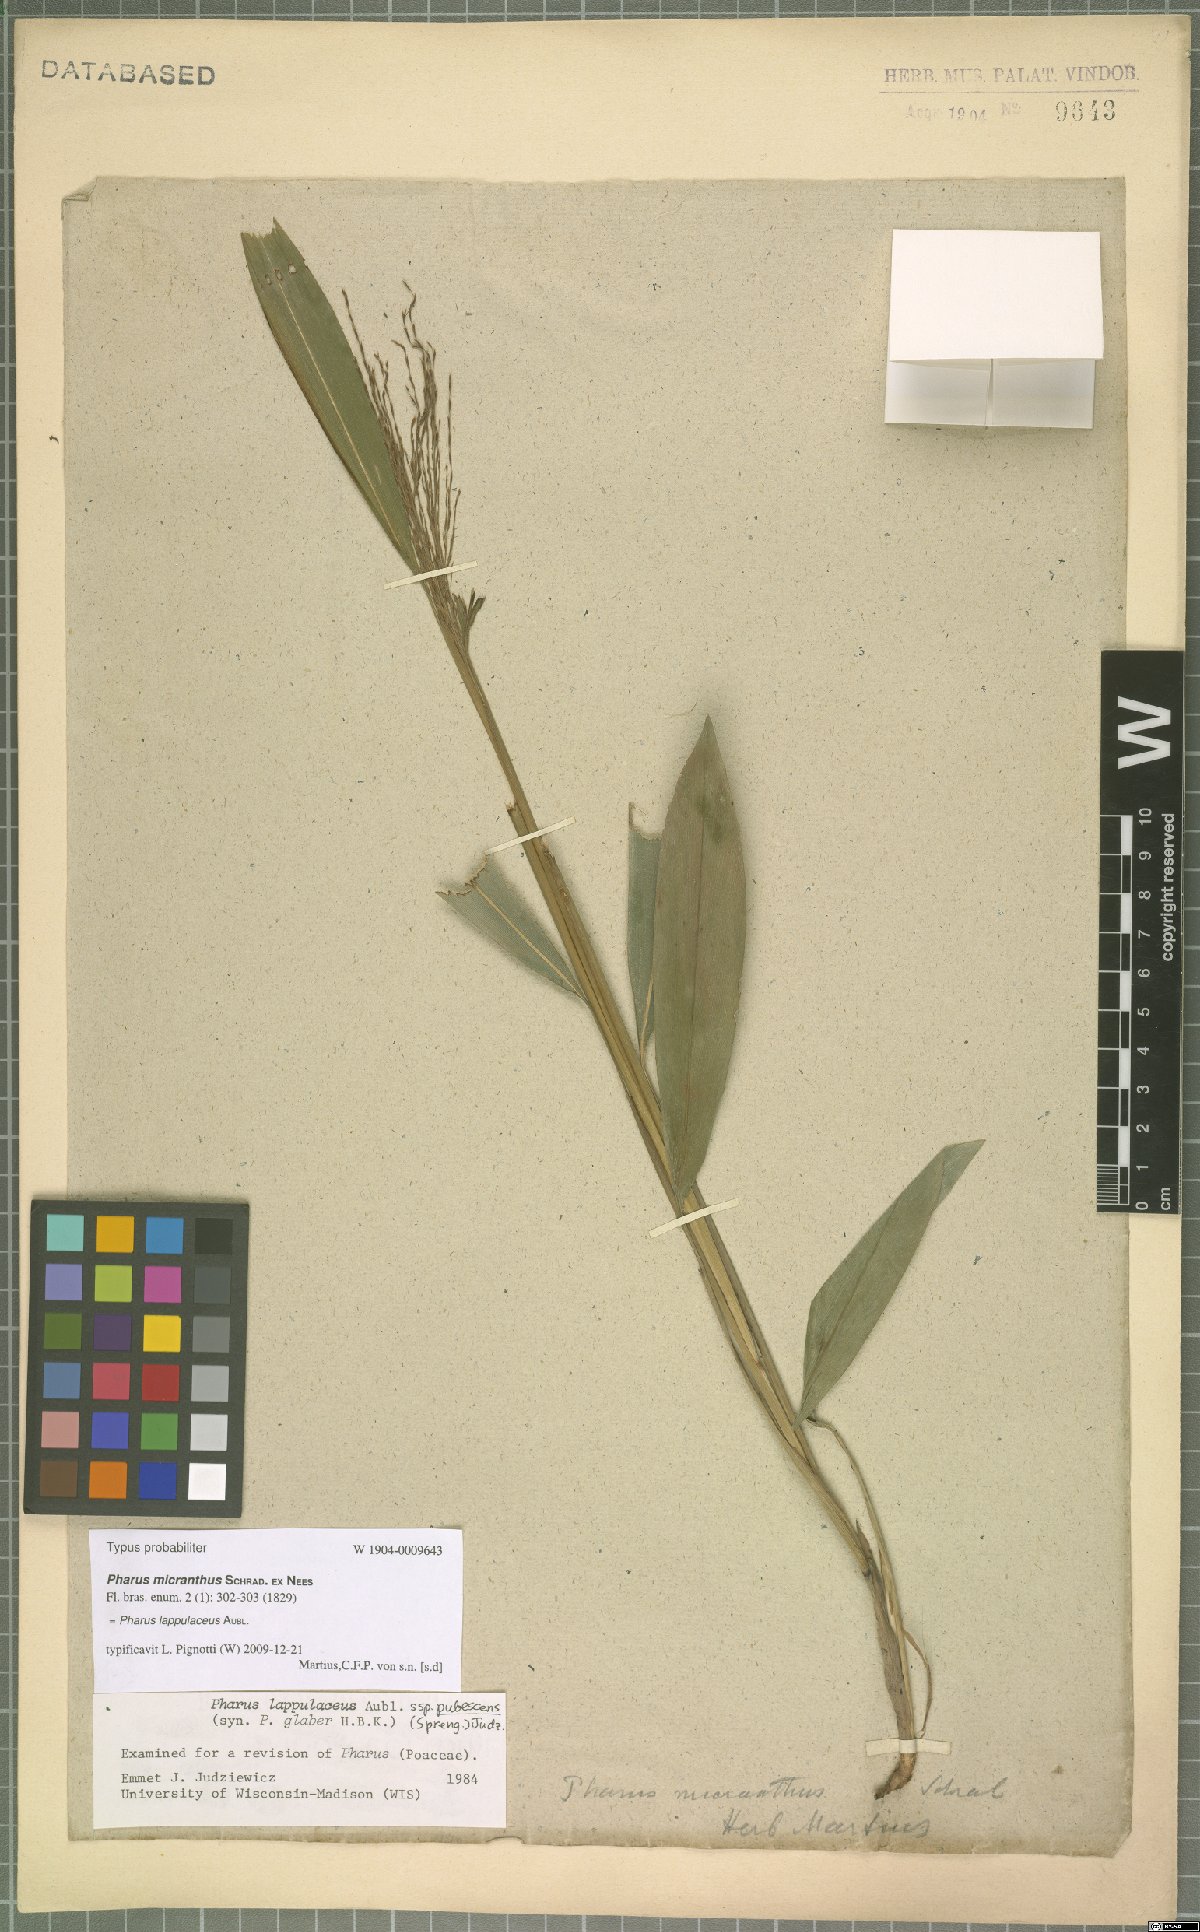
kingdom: Plantae
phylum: Tracheophyta
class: Liliopsida
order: Poales
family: Poaceae
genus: Pharus
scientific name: Pharus lappulaceus
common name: Creeping leafstalk grass
